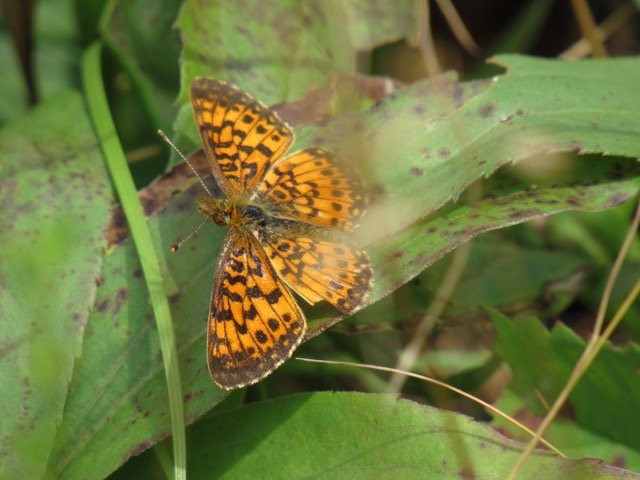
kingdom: Animalia
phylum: Arthropoda
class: Insecta
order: Lepidoptera
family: Nymphalidae
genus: Boloria
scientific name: Boloria selene
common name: Silver-bordered Fritillary
